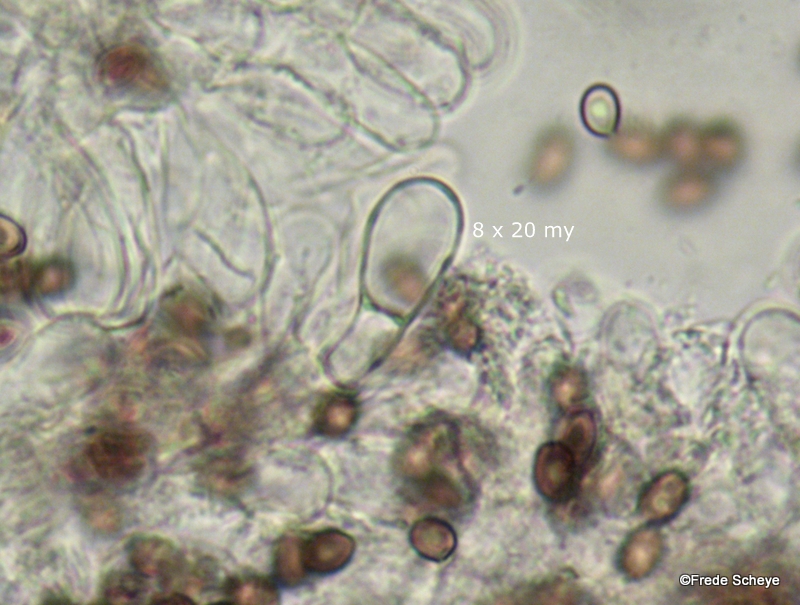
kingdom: Fungi
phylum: Basidiomycota
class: Agaricomycetes
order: Agaricales
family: Agaricaceae
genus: Agaricus
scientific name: Agaricus sylvaticus
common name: lille blod-champignon
